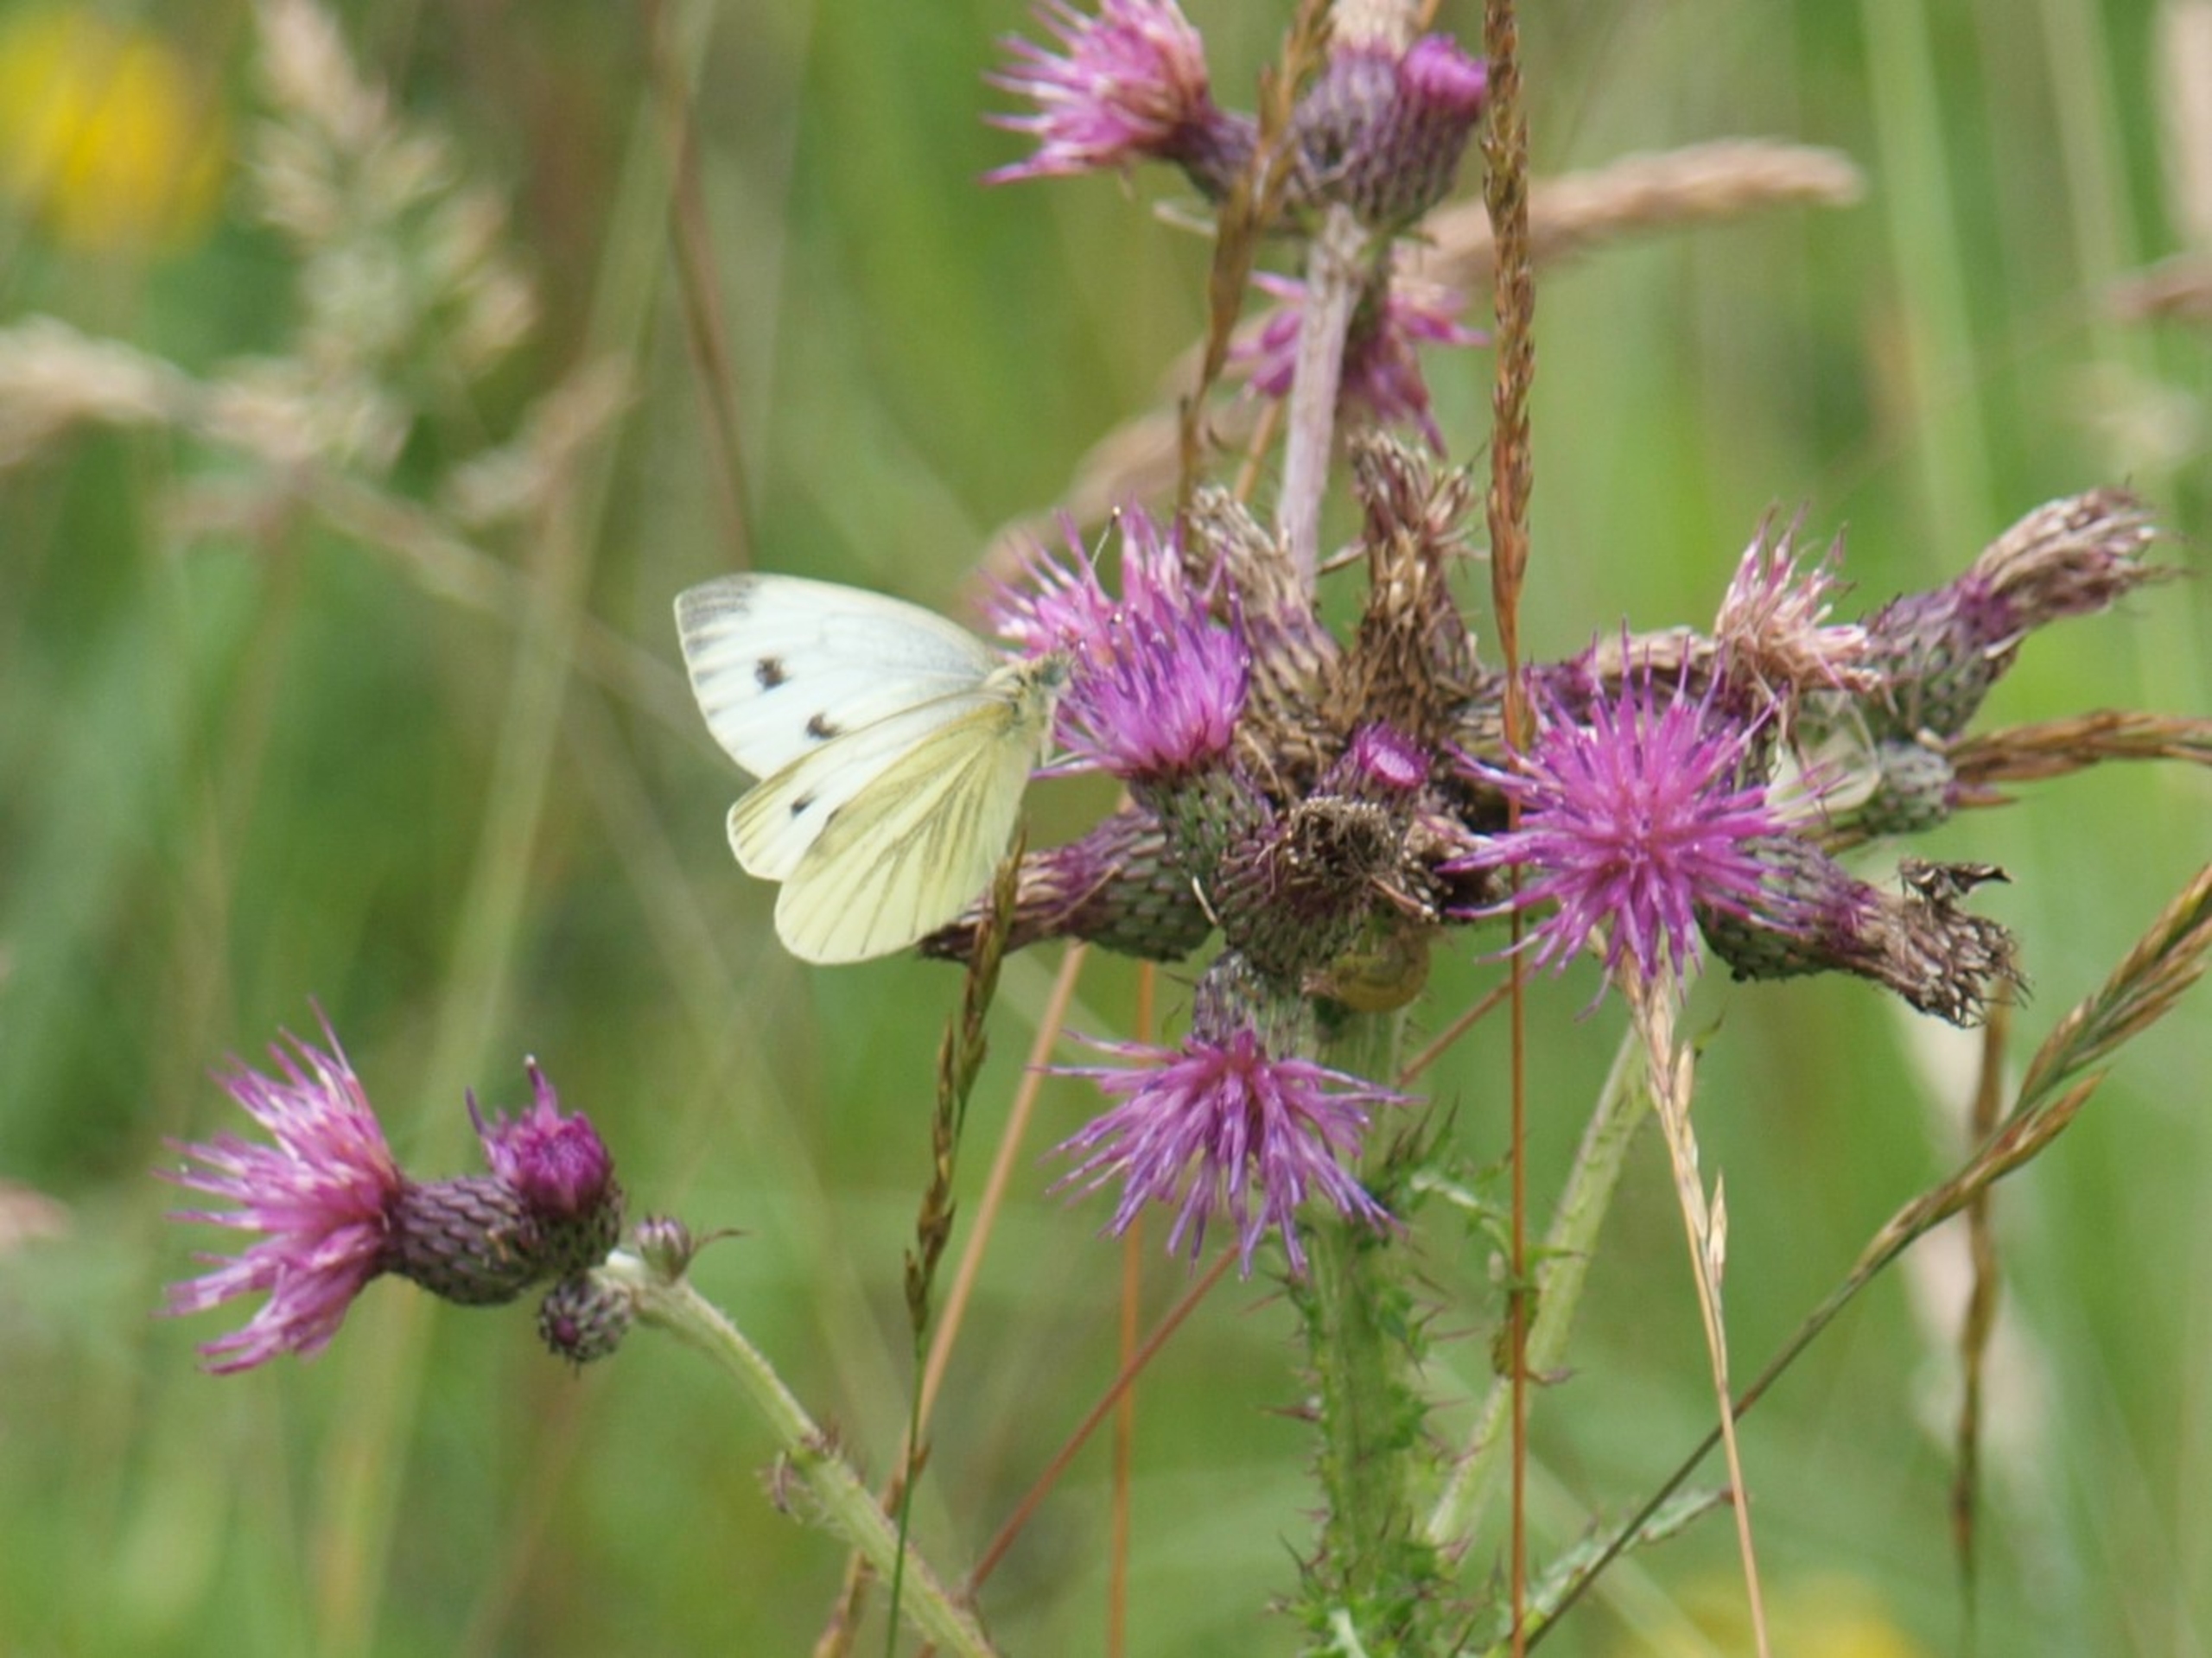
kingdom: Animalia
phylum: Arthropoda
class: Insecta
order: Lepidoptera
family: Pieridae
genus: Pieris
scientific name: Pieris napi
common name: Grønåret kålsommerfugl
